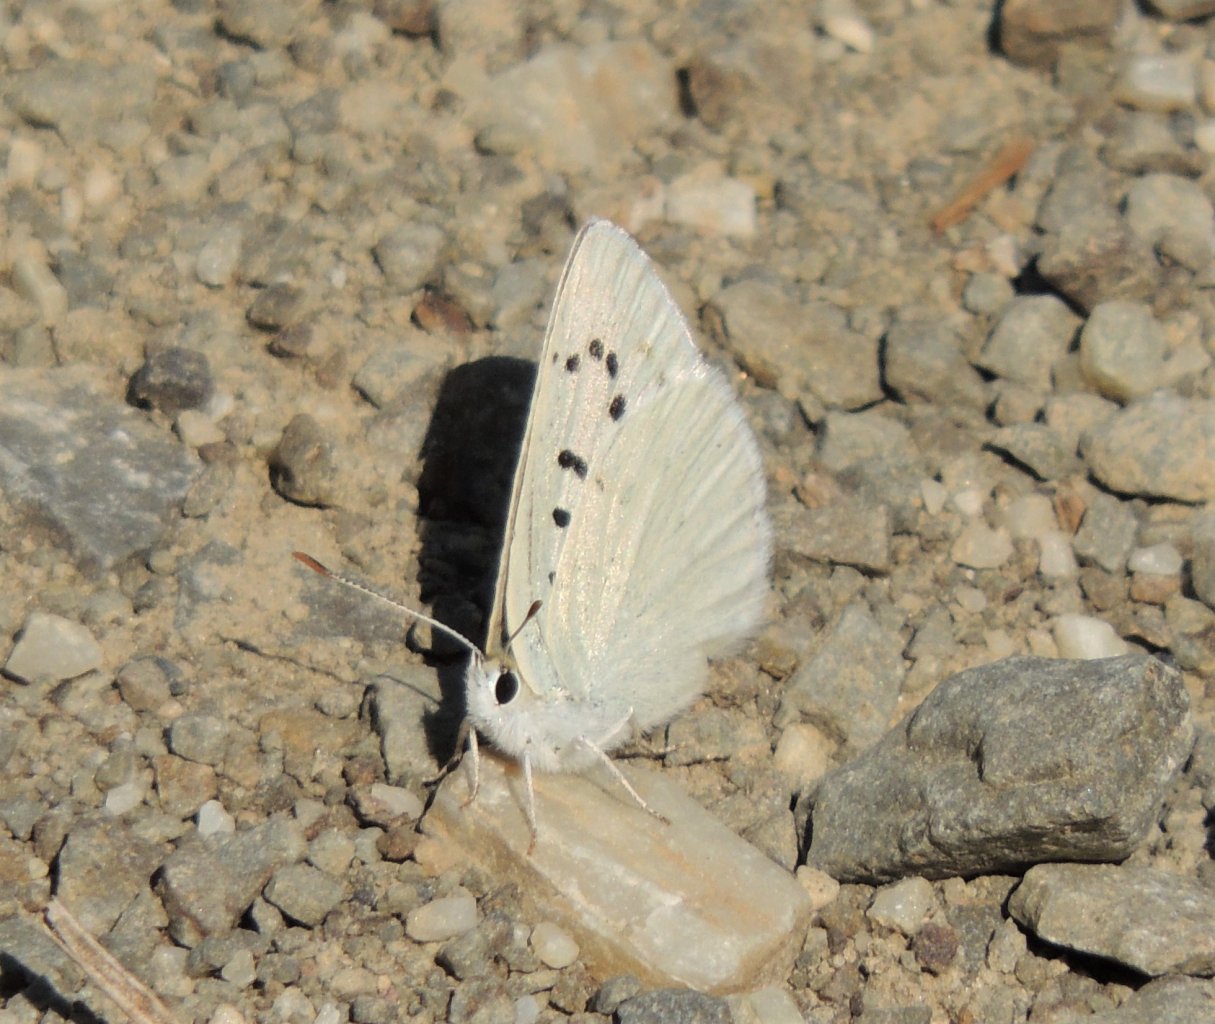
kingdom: Animalia
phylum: Arthropoda
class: Insecta
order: Lepidoptera
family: Lycaenidae
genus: Lycaena
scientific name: Lycaena heteronea
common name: Blue Copper
